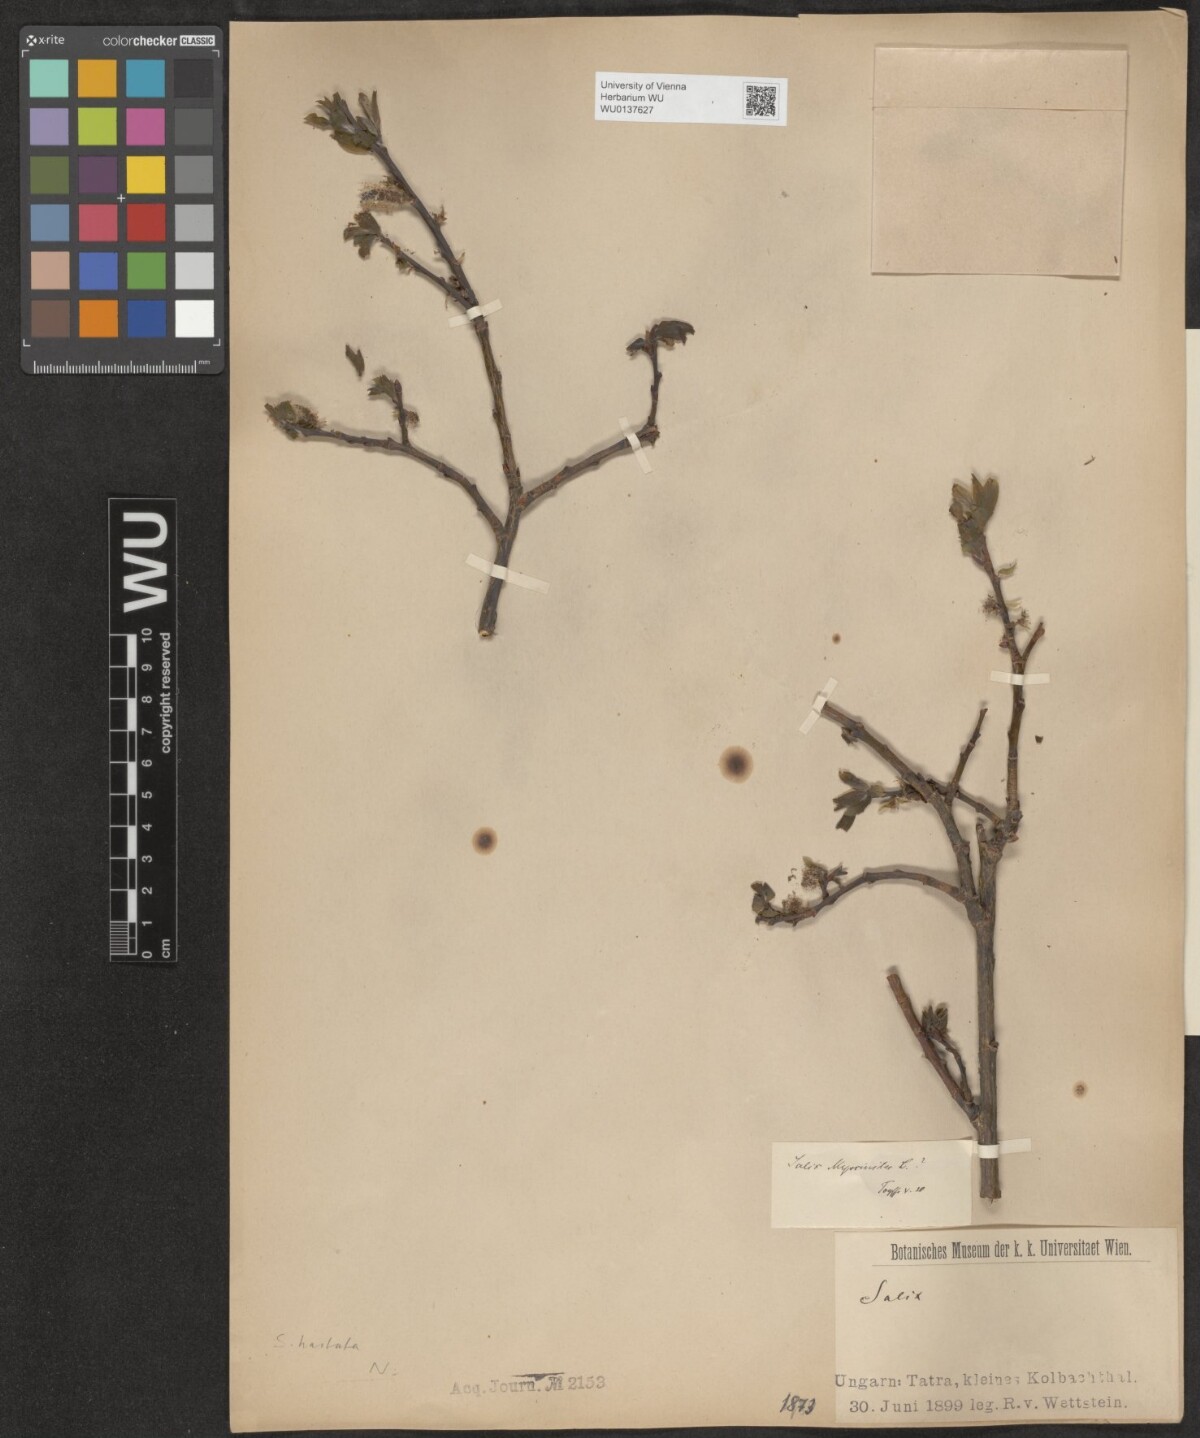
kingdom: Plantae
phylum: Tracheophyta
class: Magnoliopsida
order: Malpighiales
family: Salicaceae
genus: Salix
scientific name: Salix hastata
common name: Halberd willow
